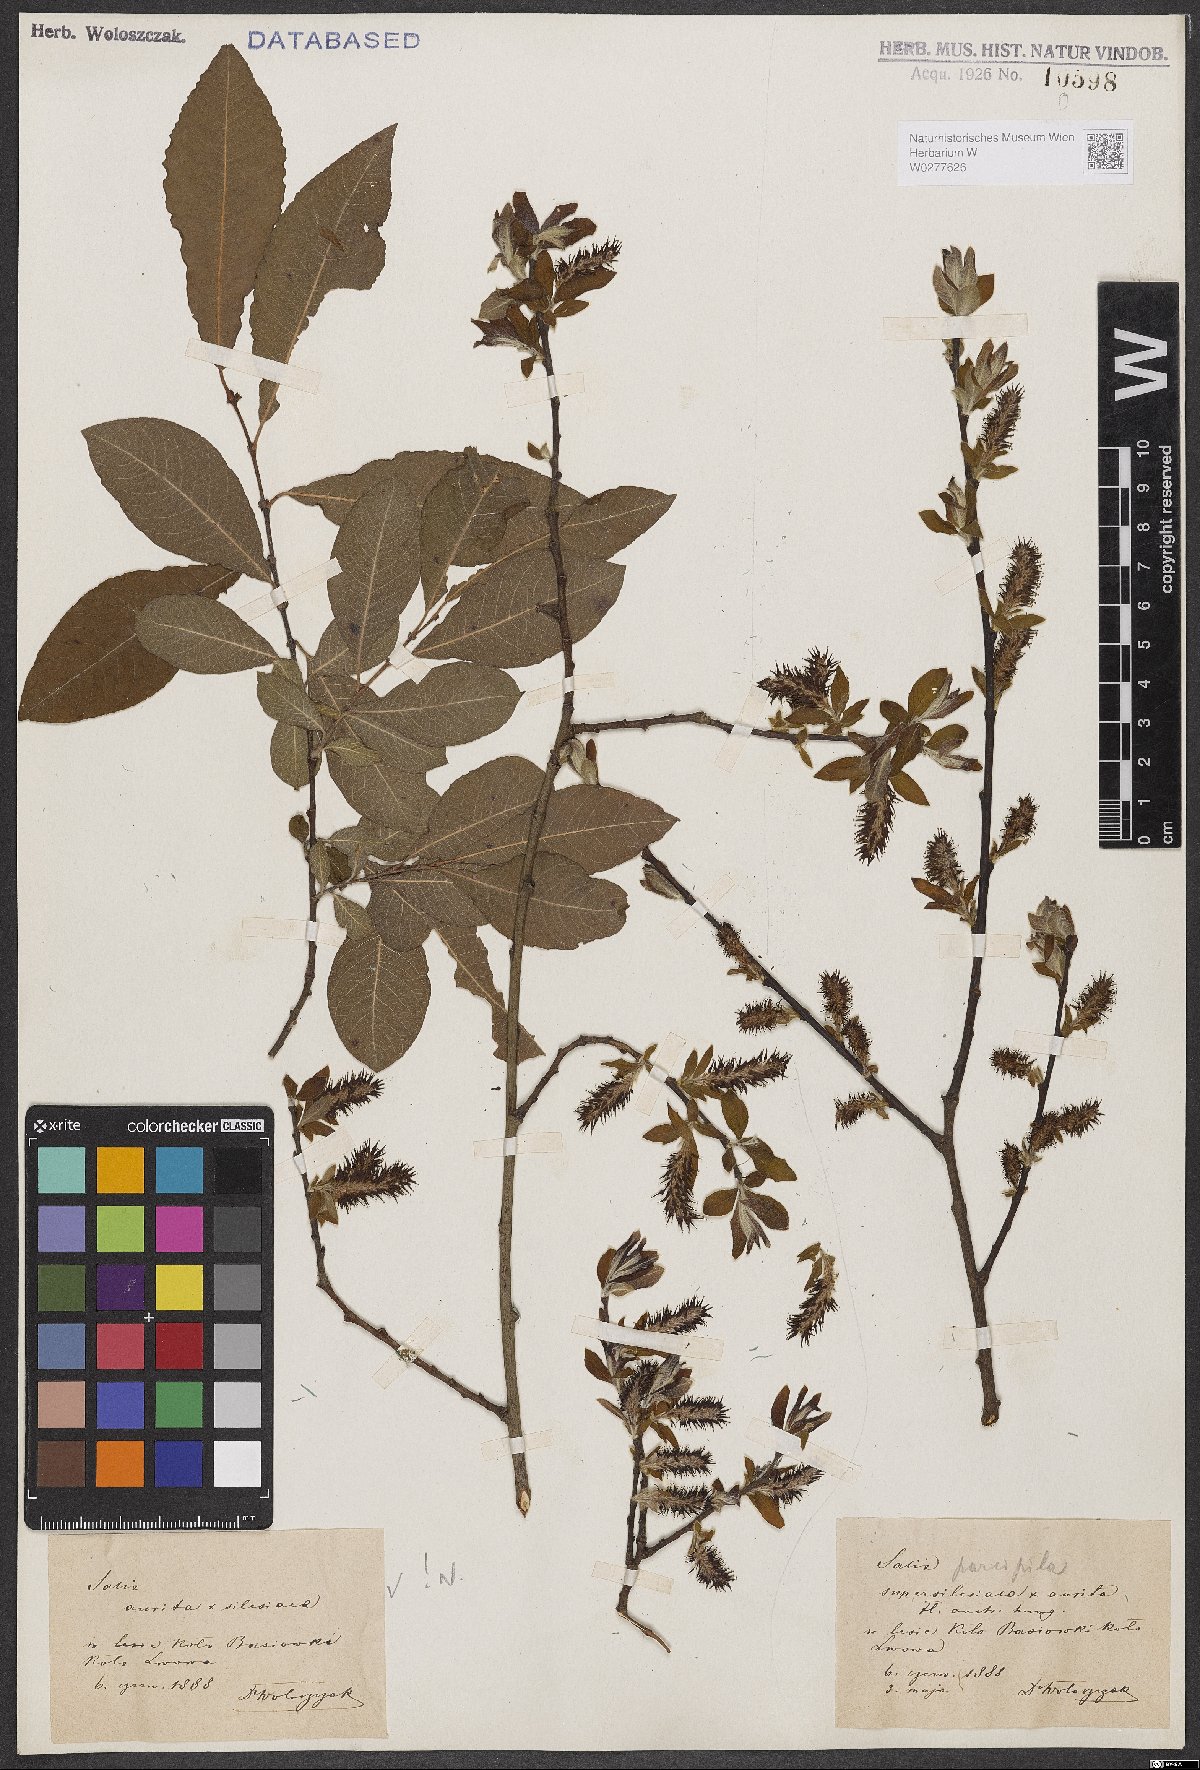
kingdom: Plantae
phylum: Tracheophyta
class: Magnoliopsida
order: Malpighiales
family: Salicaceae
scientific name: Salicaceae
